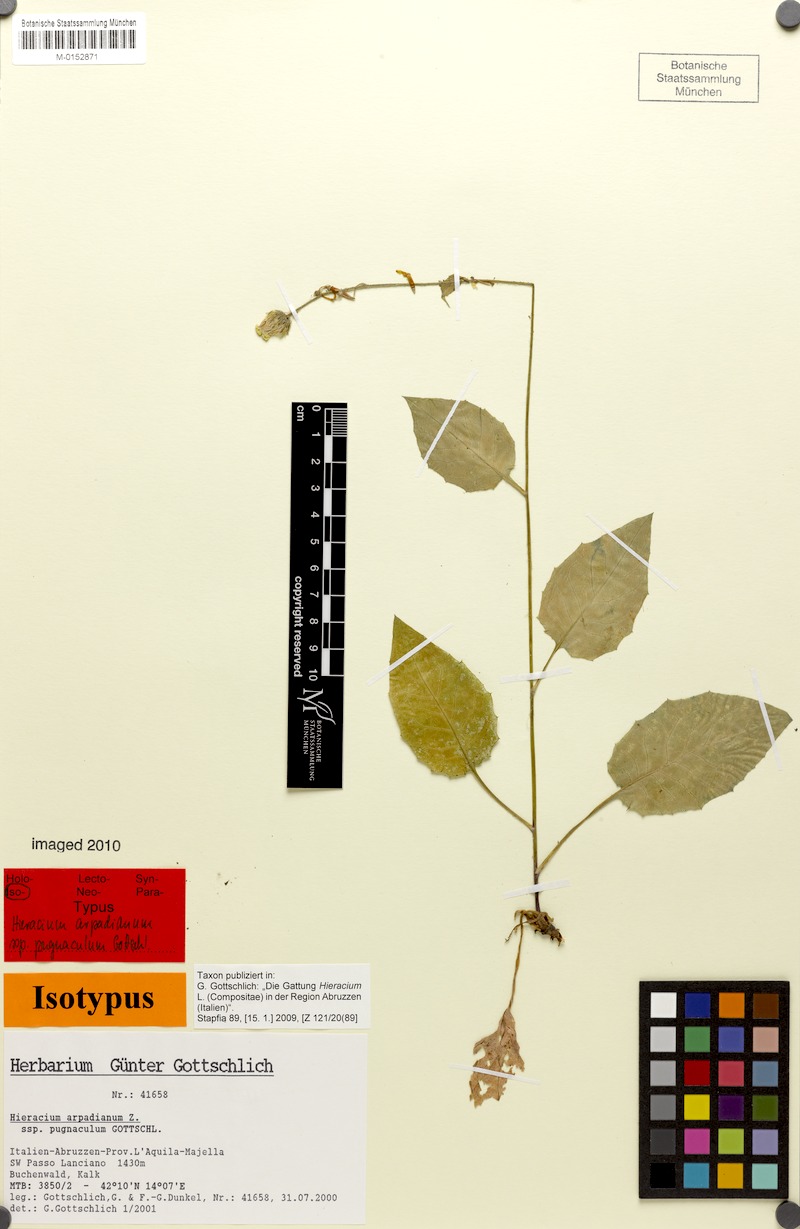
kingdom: Plantae
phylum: Tracheophyta
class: Magnoliopsida
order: Asterales
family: Asteraceae
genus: Hieracium
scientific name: Hieracium arpadianum
